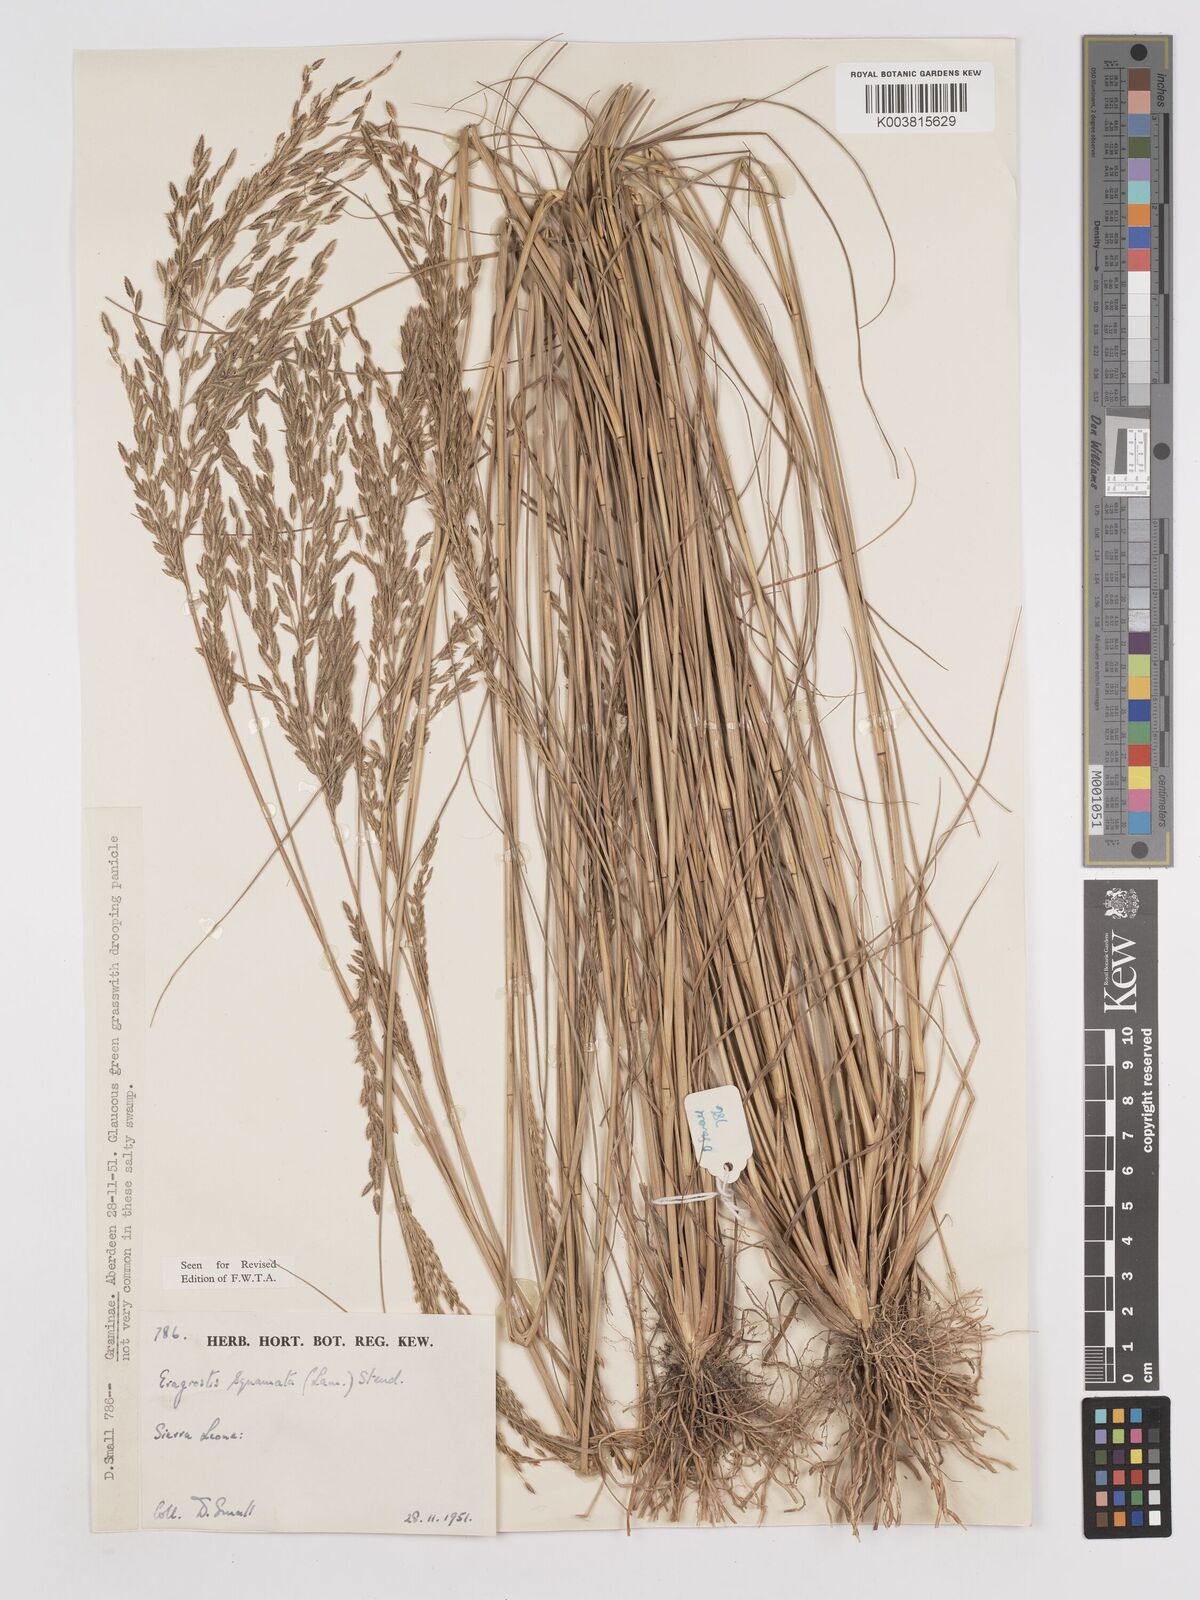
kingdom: Plantae
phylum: Tracheophyta
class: Liliopsida
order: Poales
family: Poaceae
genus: Eragrostis
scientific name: Eragrostis squamata
